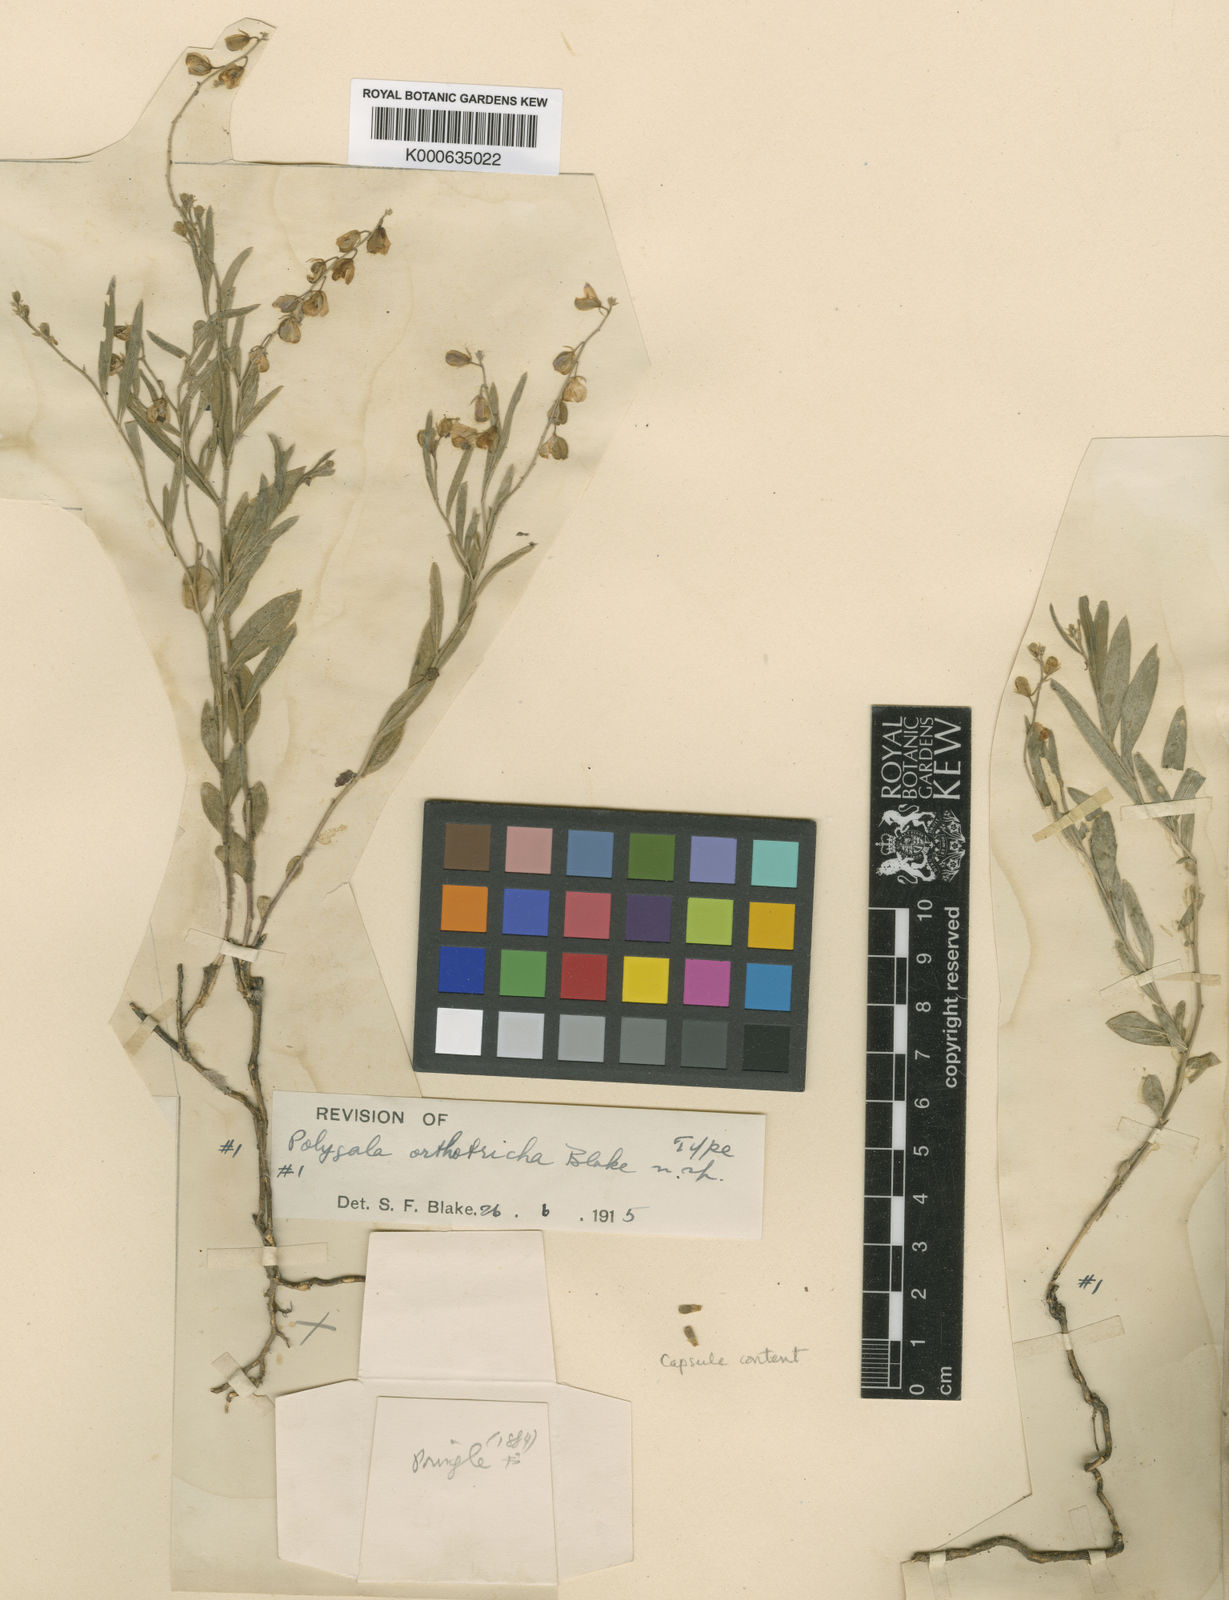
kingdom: Plantae
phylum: Tracheophyta
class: Magnoliopsida
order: Fabales
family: Fabaceae
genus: Desmodium
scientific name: Desmodium cinerascens
